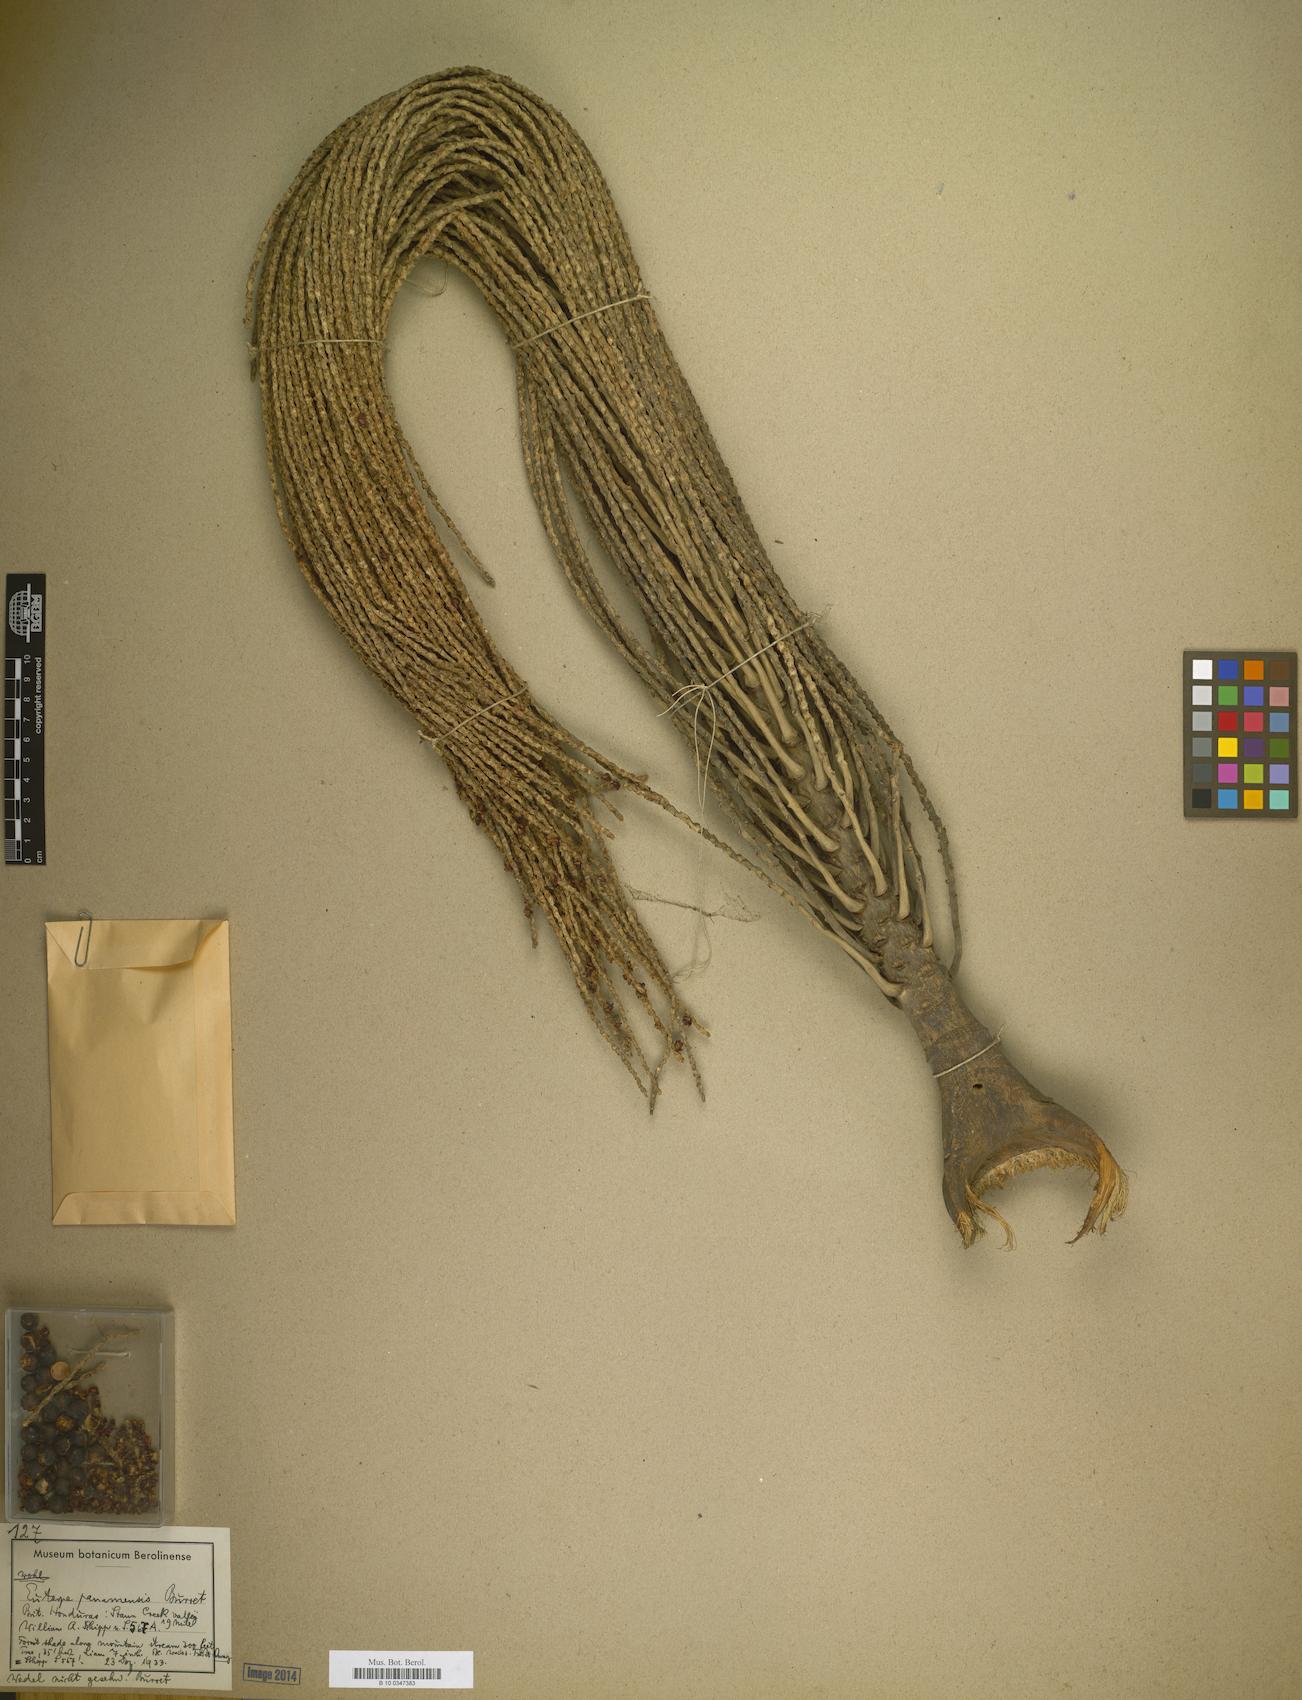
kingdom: Plantae
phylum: Tracheophyta
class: Liliopsida
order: Arecales
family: Arecaceae
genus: Euterpe
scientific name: Euterpe precatoria
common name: Mountain-cabbage
